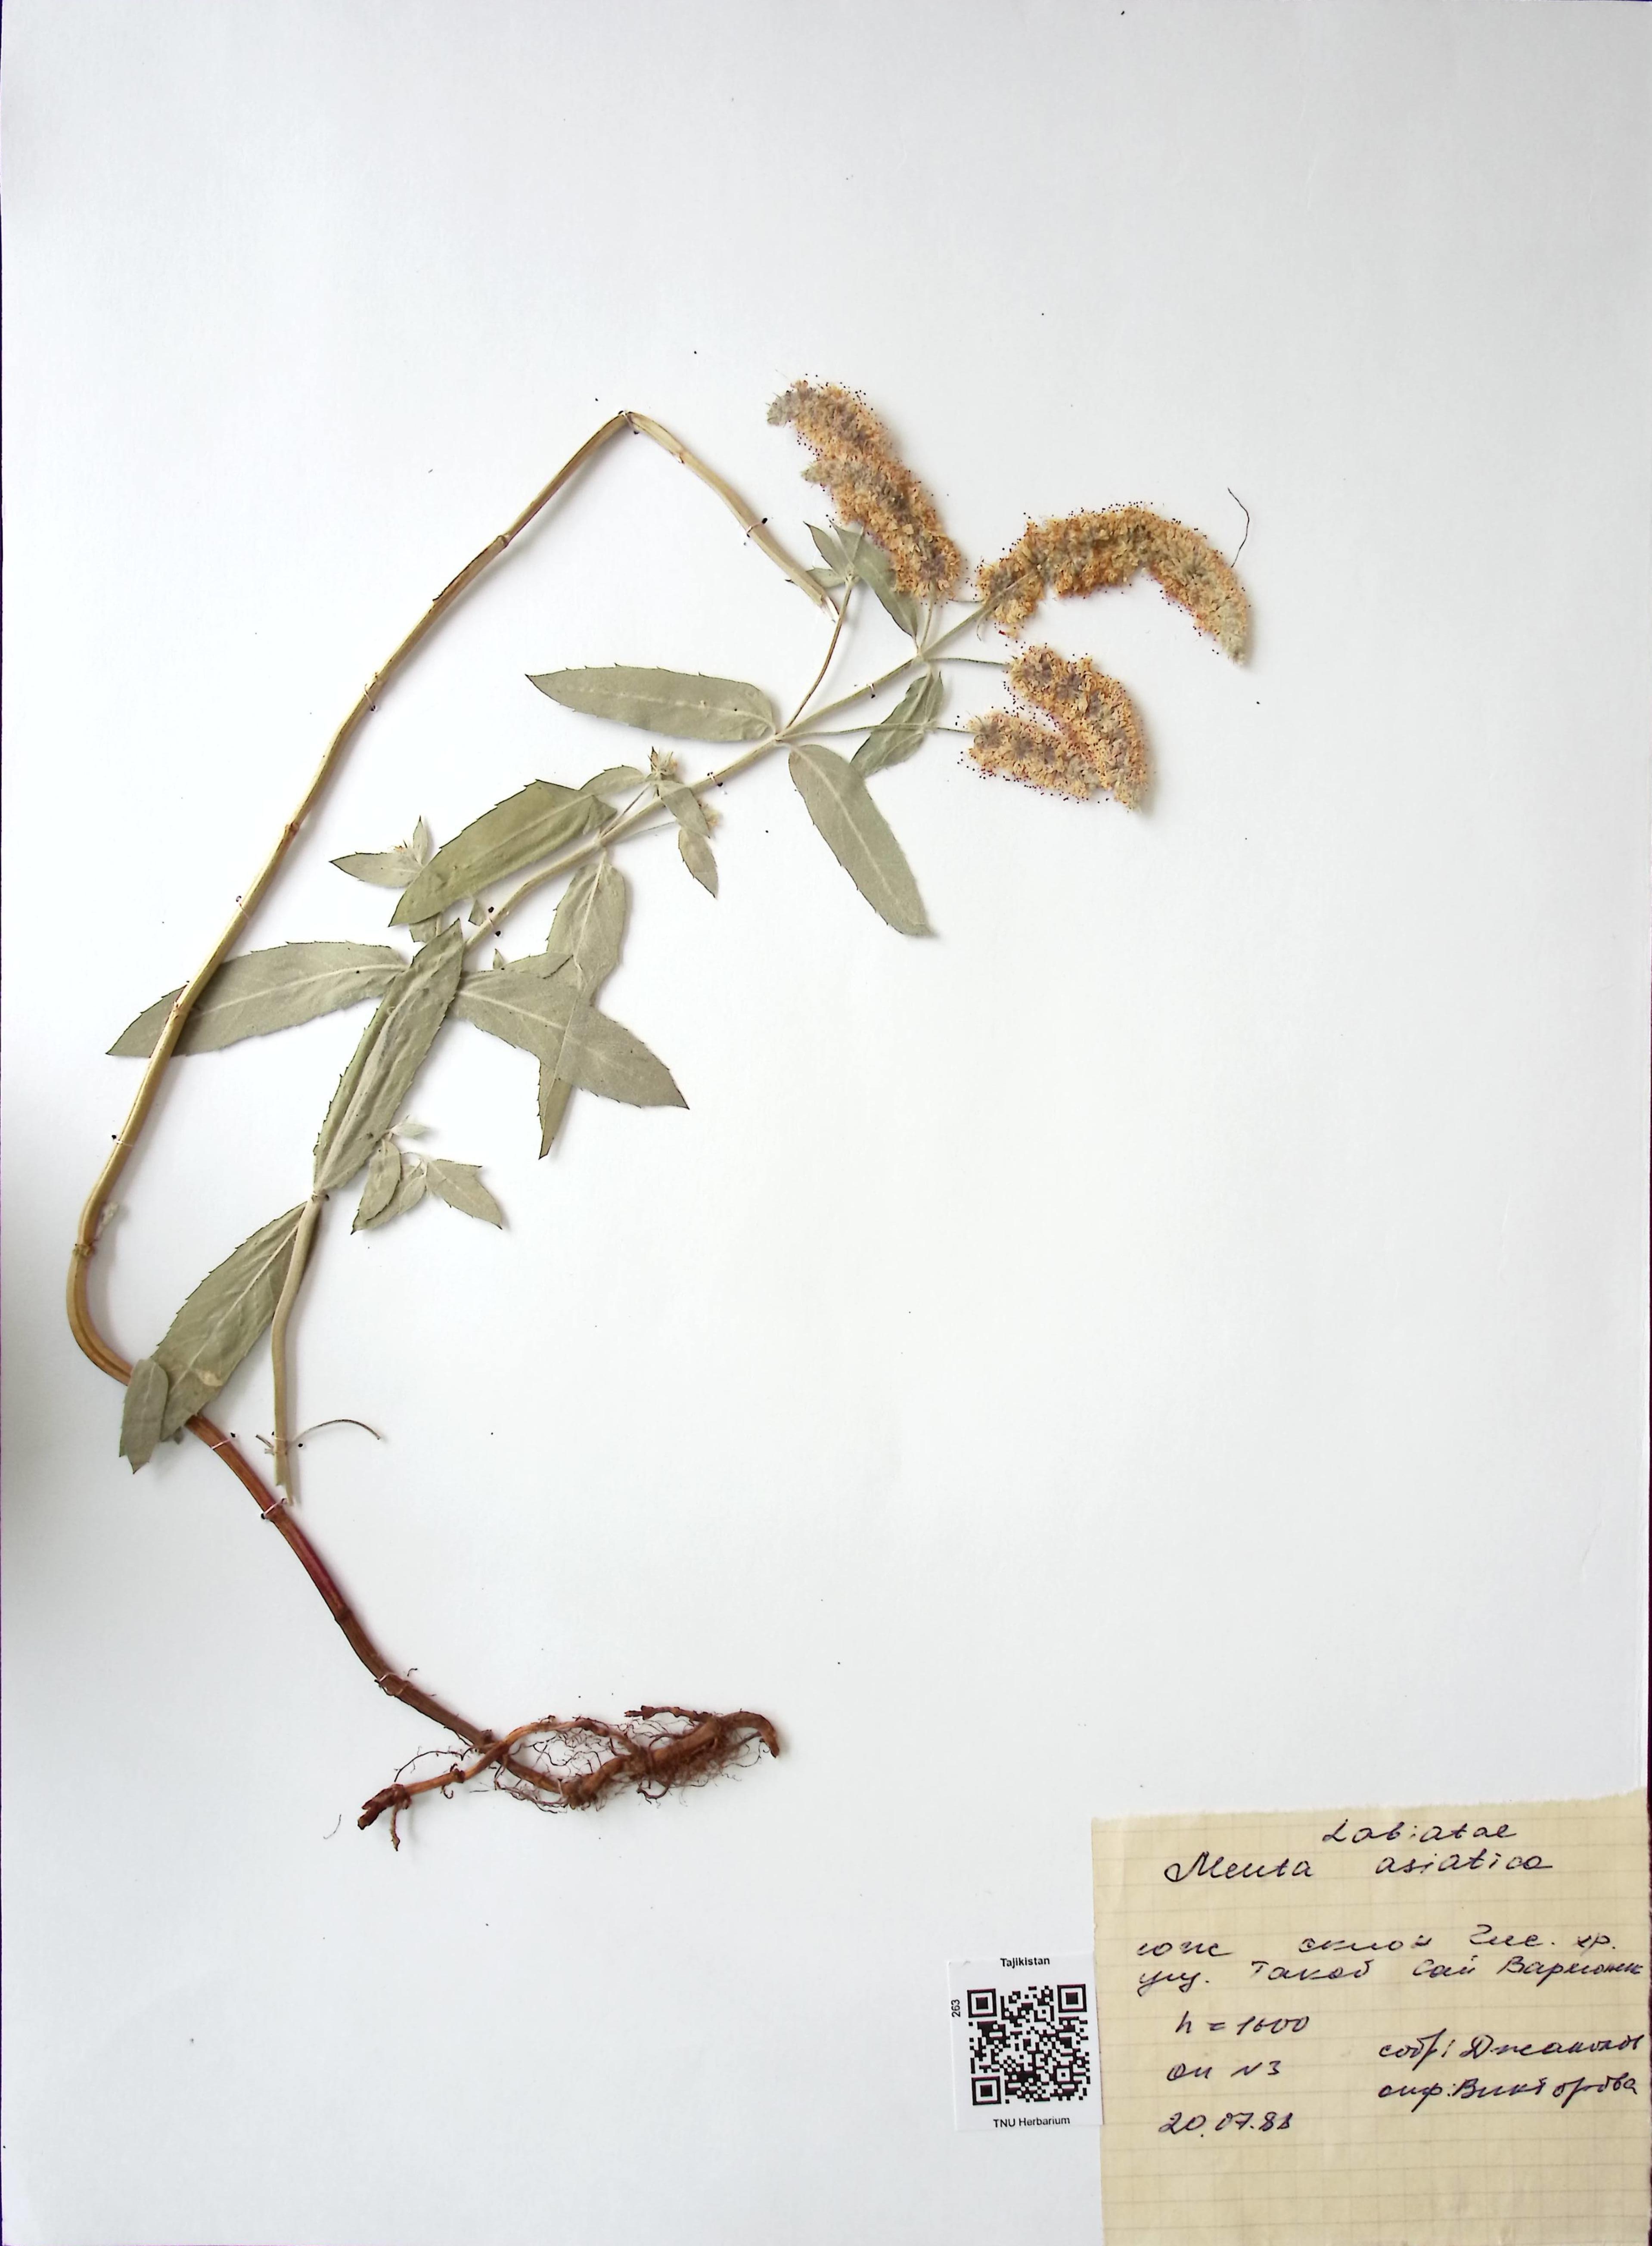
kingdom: Plantae
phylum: Tracheophyta
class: Magnoliopsida
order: Lamiales
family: Lamiaceae
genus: Mentha
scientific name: Mentha
